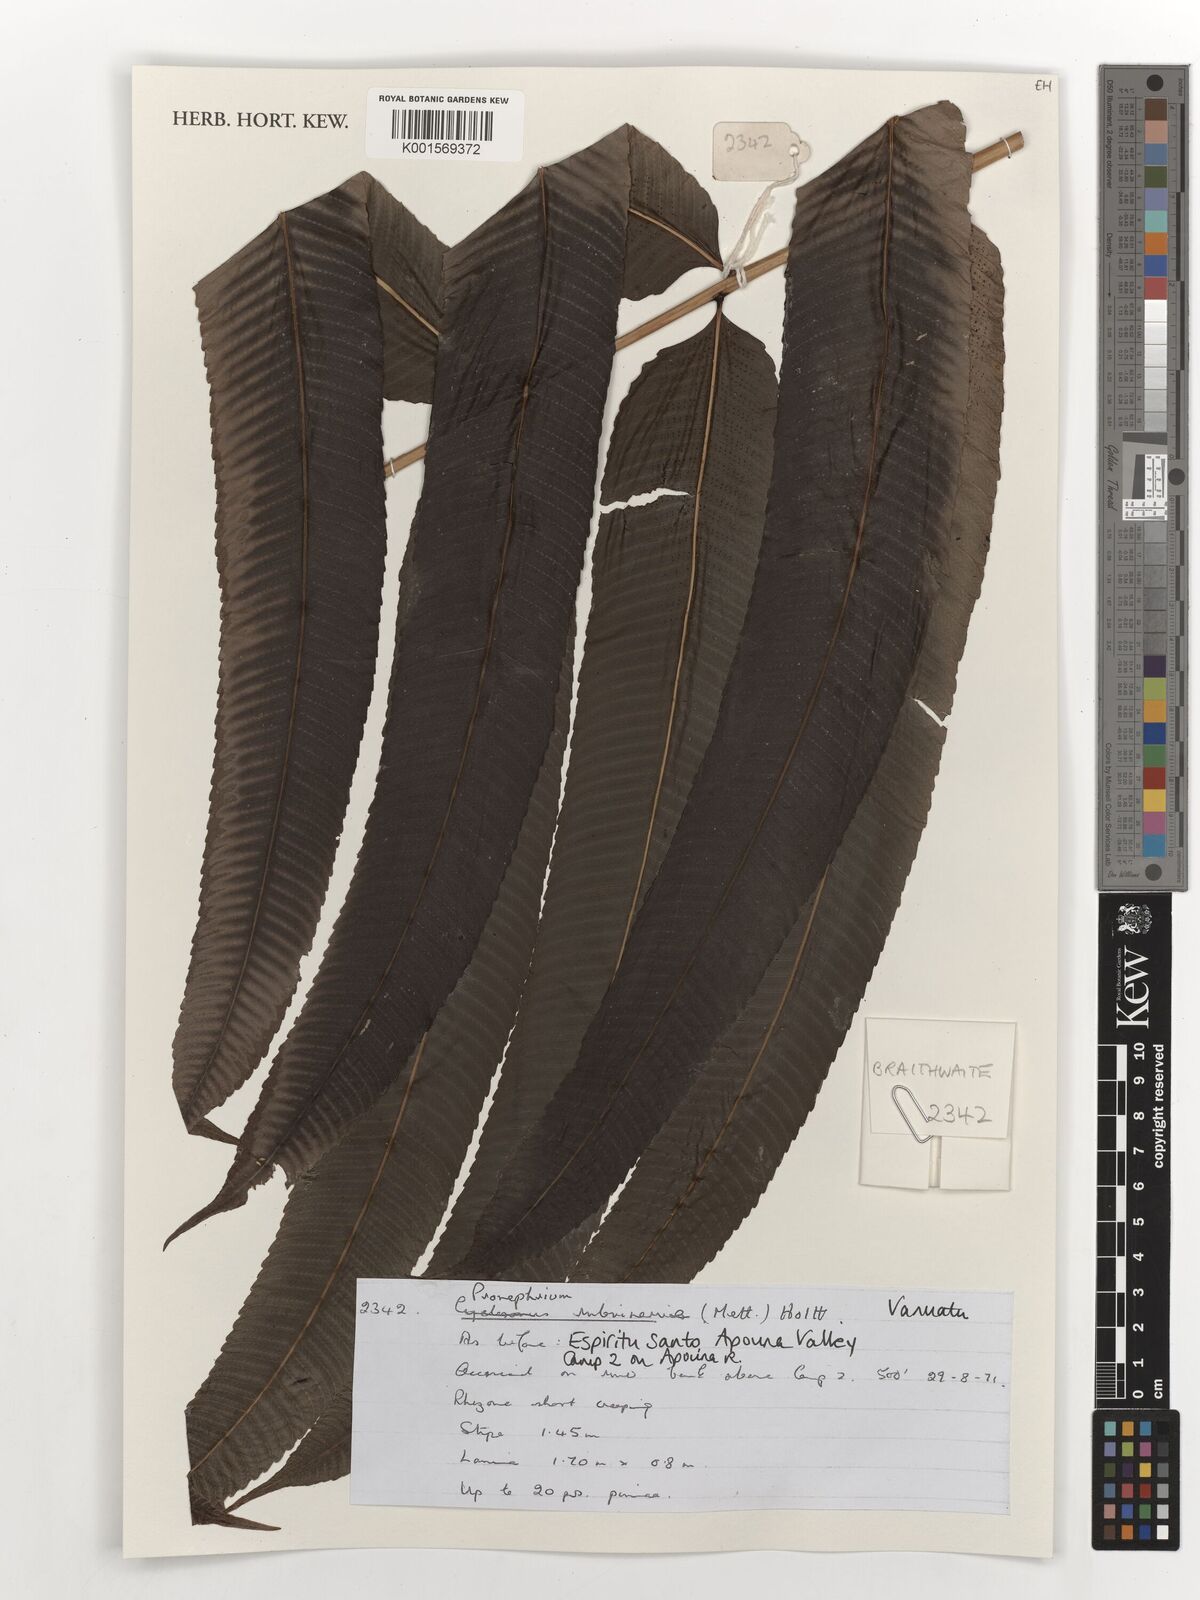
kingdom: Plantae
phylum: Tracheophyta
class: Polypodiopsida
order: Polypodiales
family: Thelypteridaceae
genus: Menisciopsis
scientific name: Menisciopsis rubrinervis
